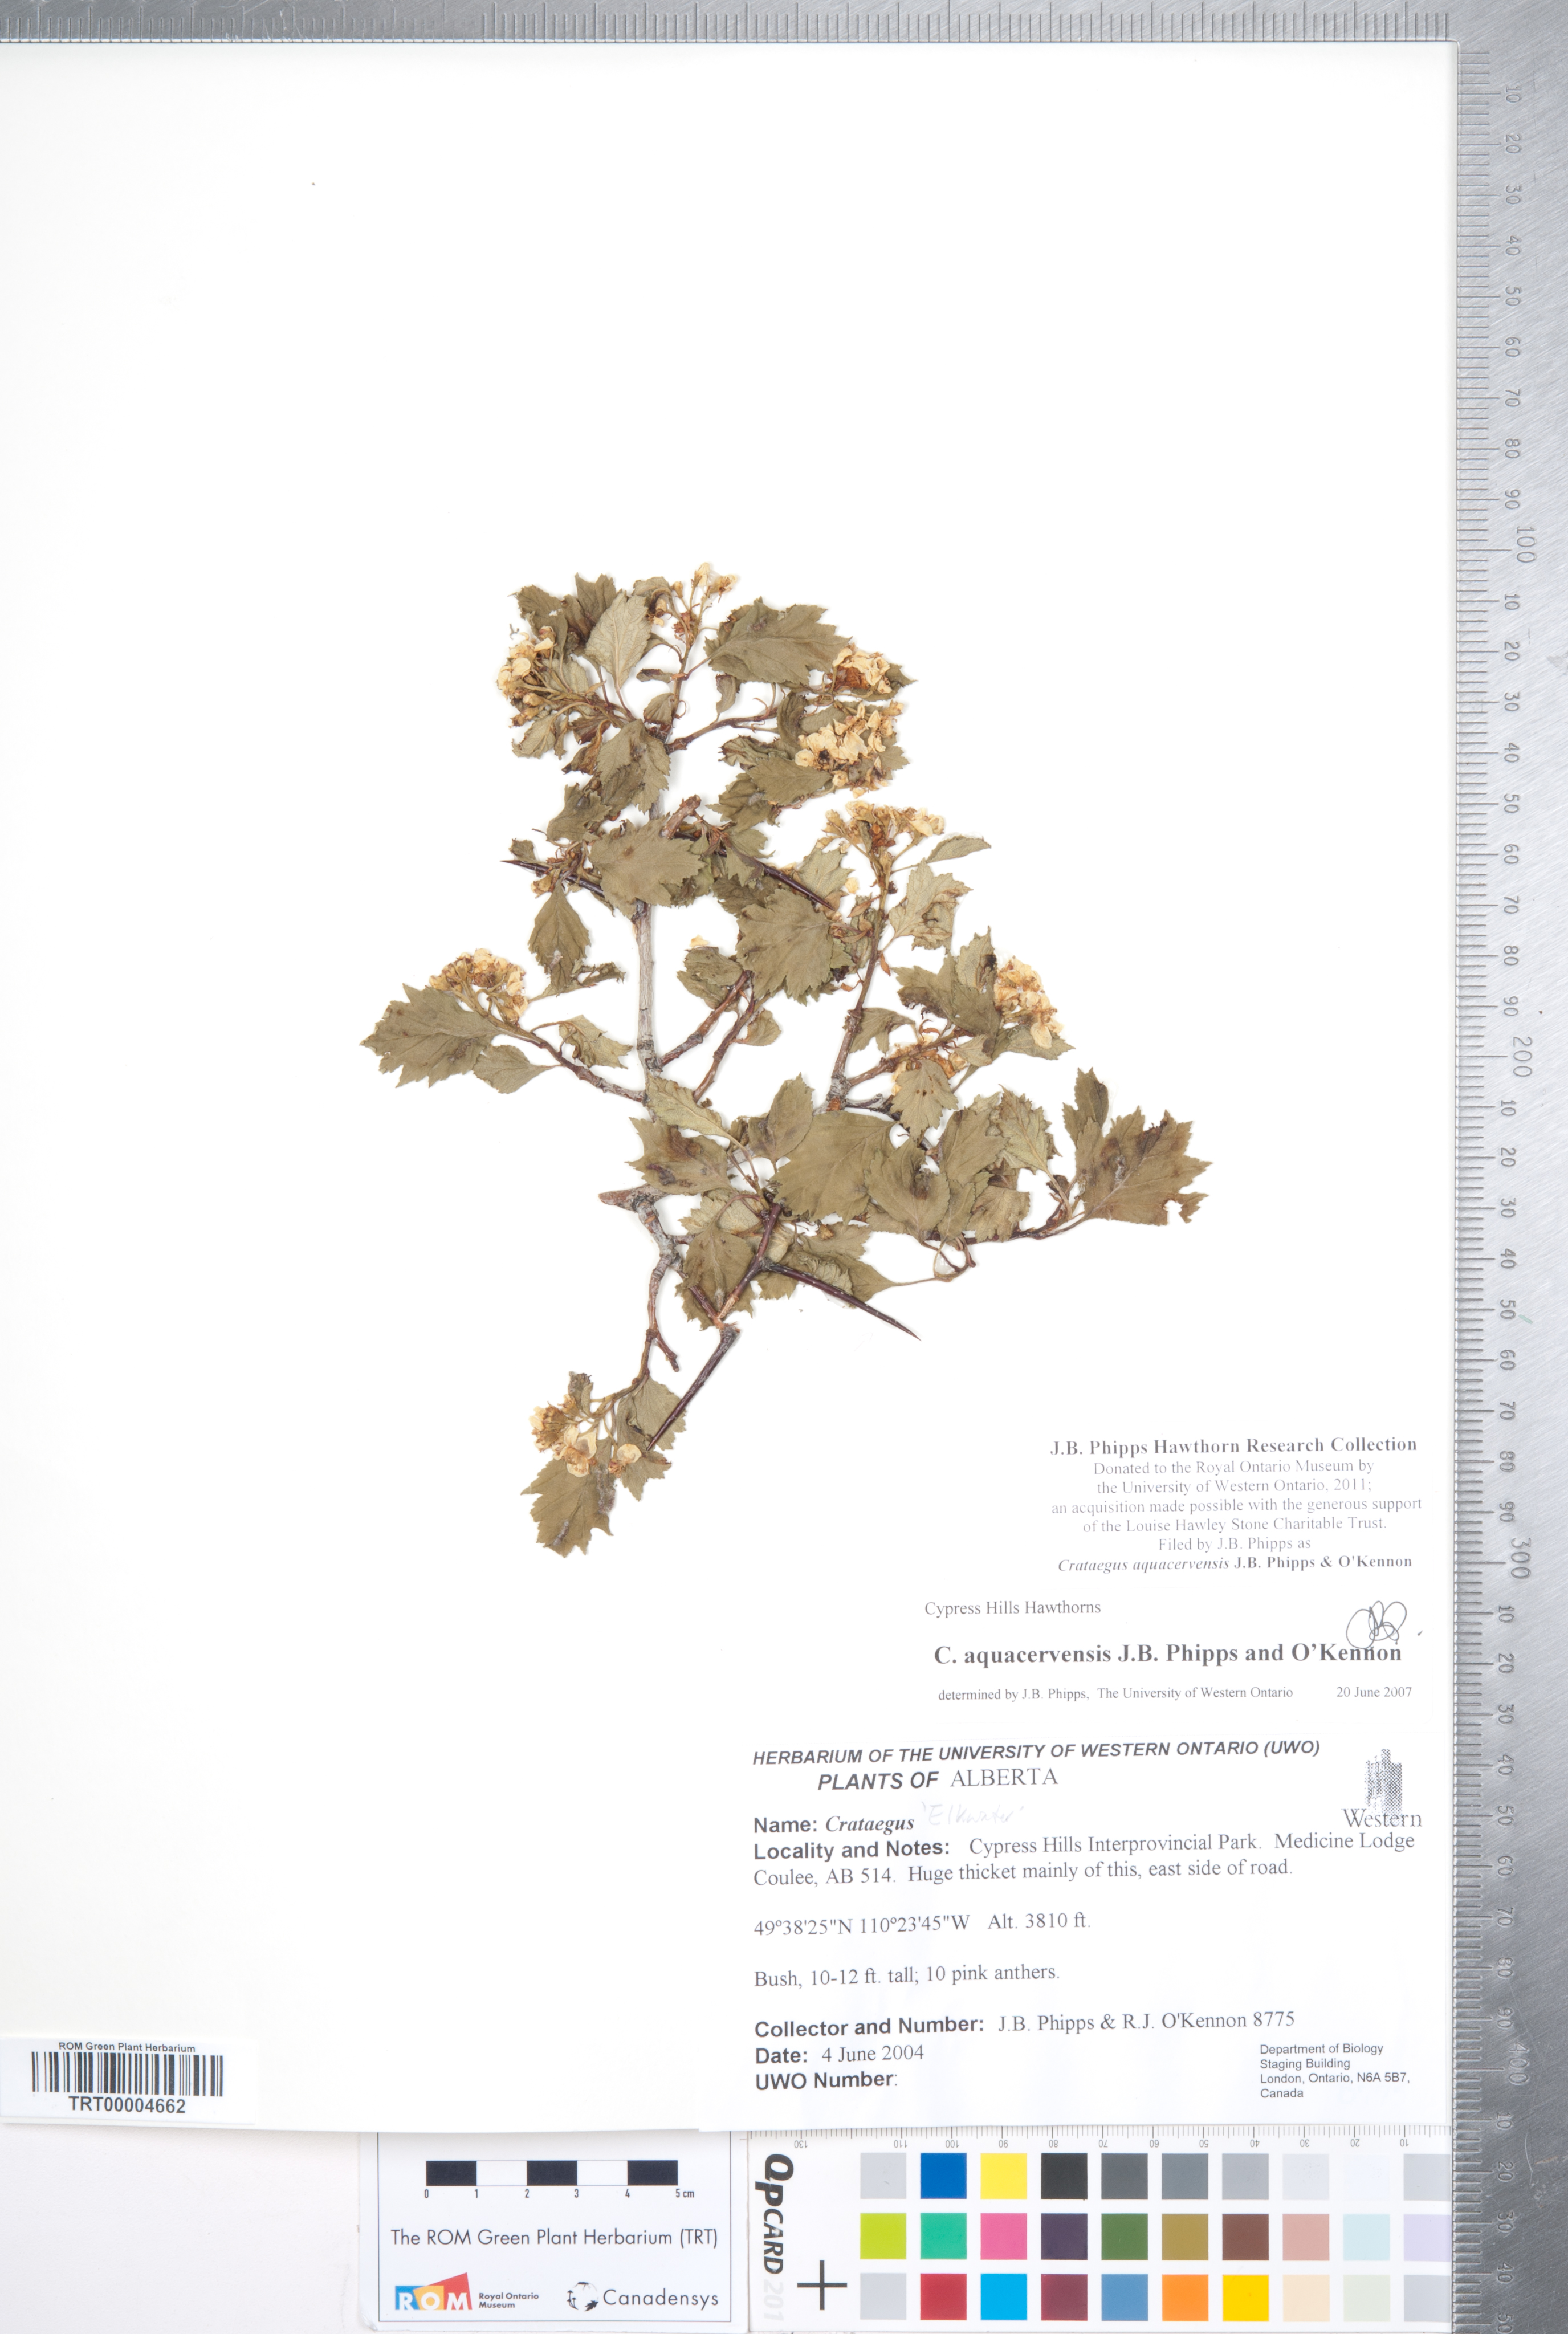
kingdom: Plantae
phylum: Tracheophyta
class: Magnoliopsida
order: Rosales
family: Rosaceae
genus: Crataegus
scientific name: Crataegus aquacervensis
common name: Elkwater hawthorn
